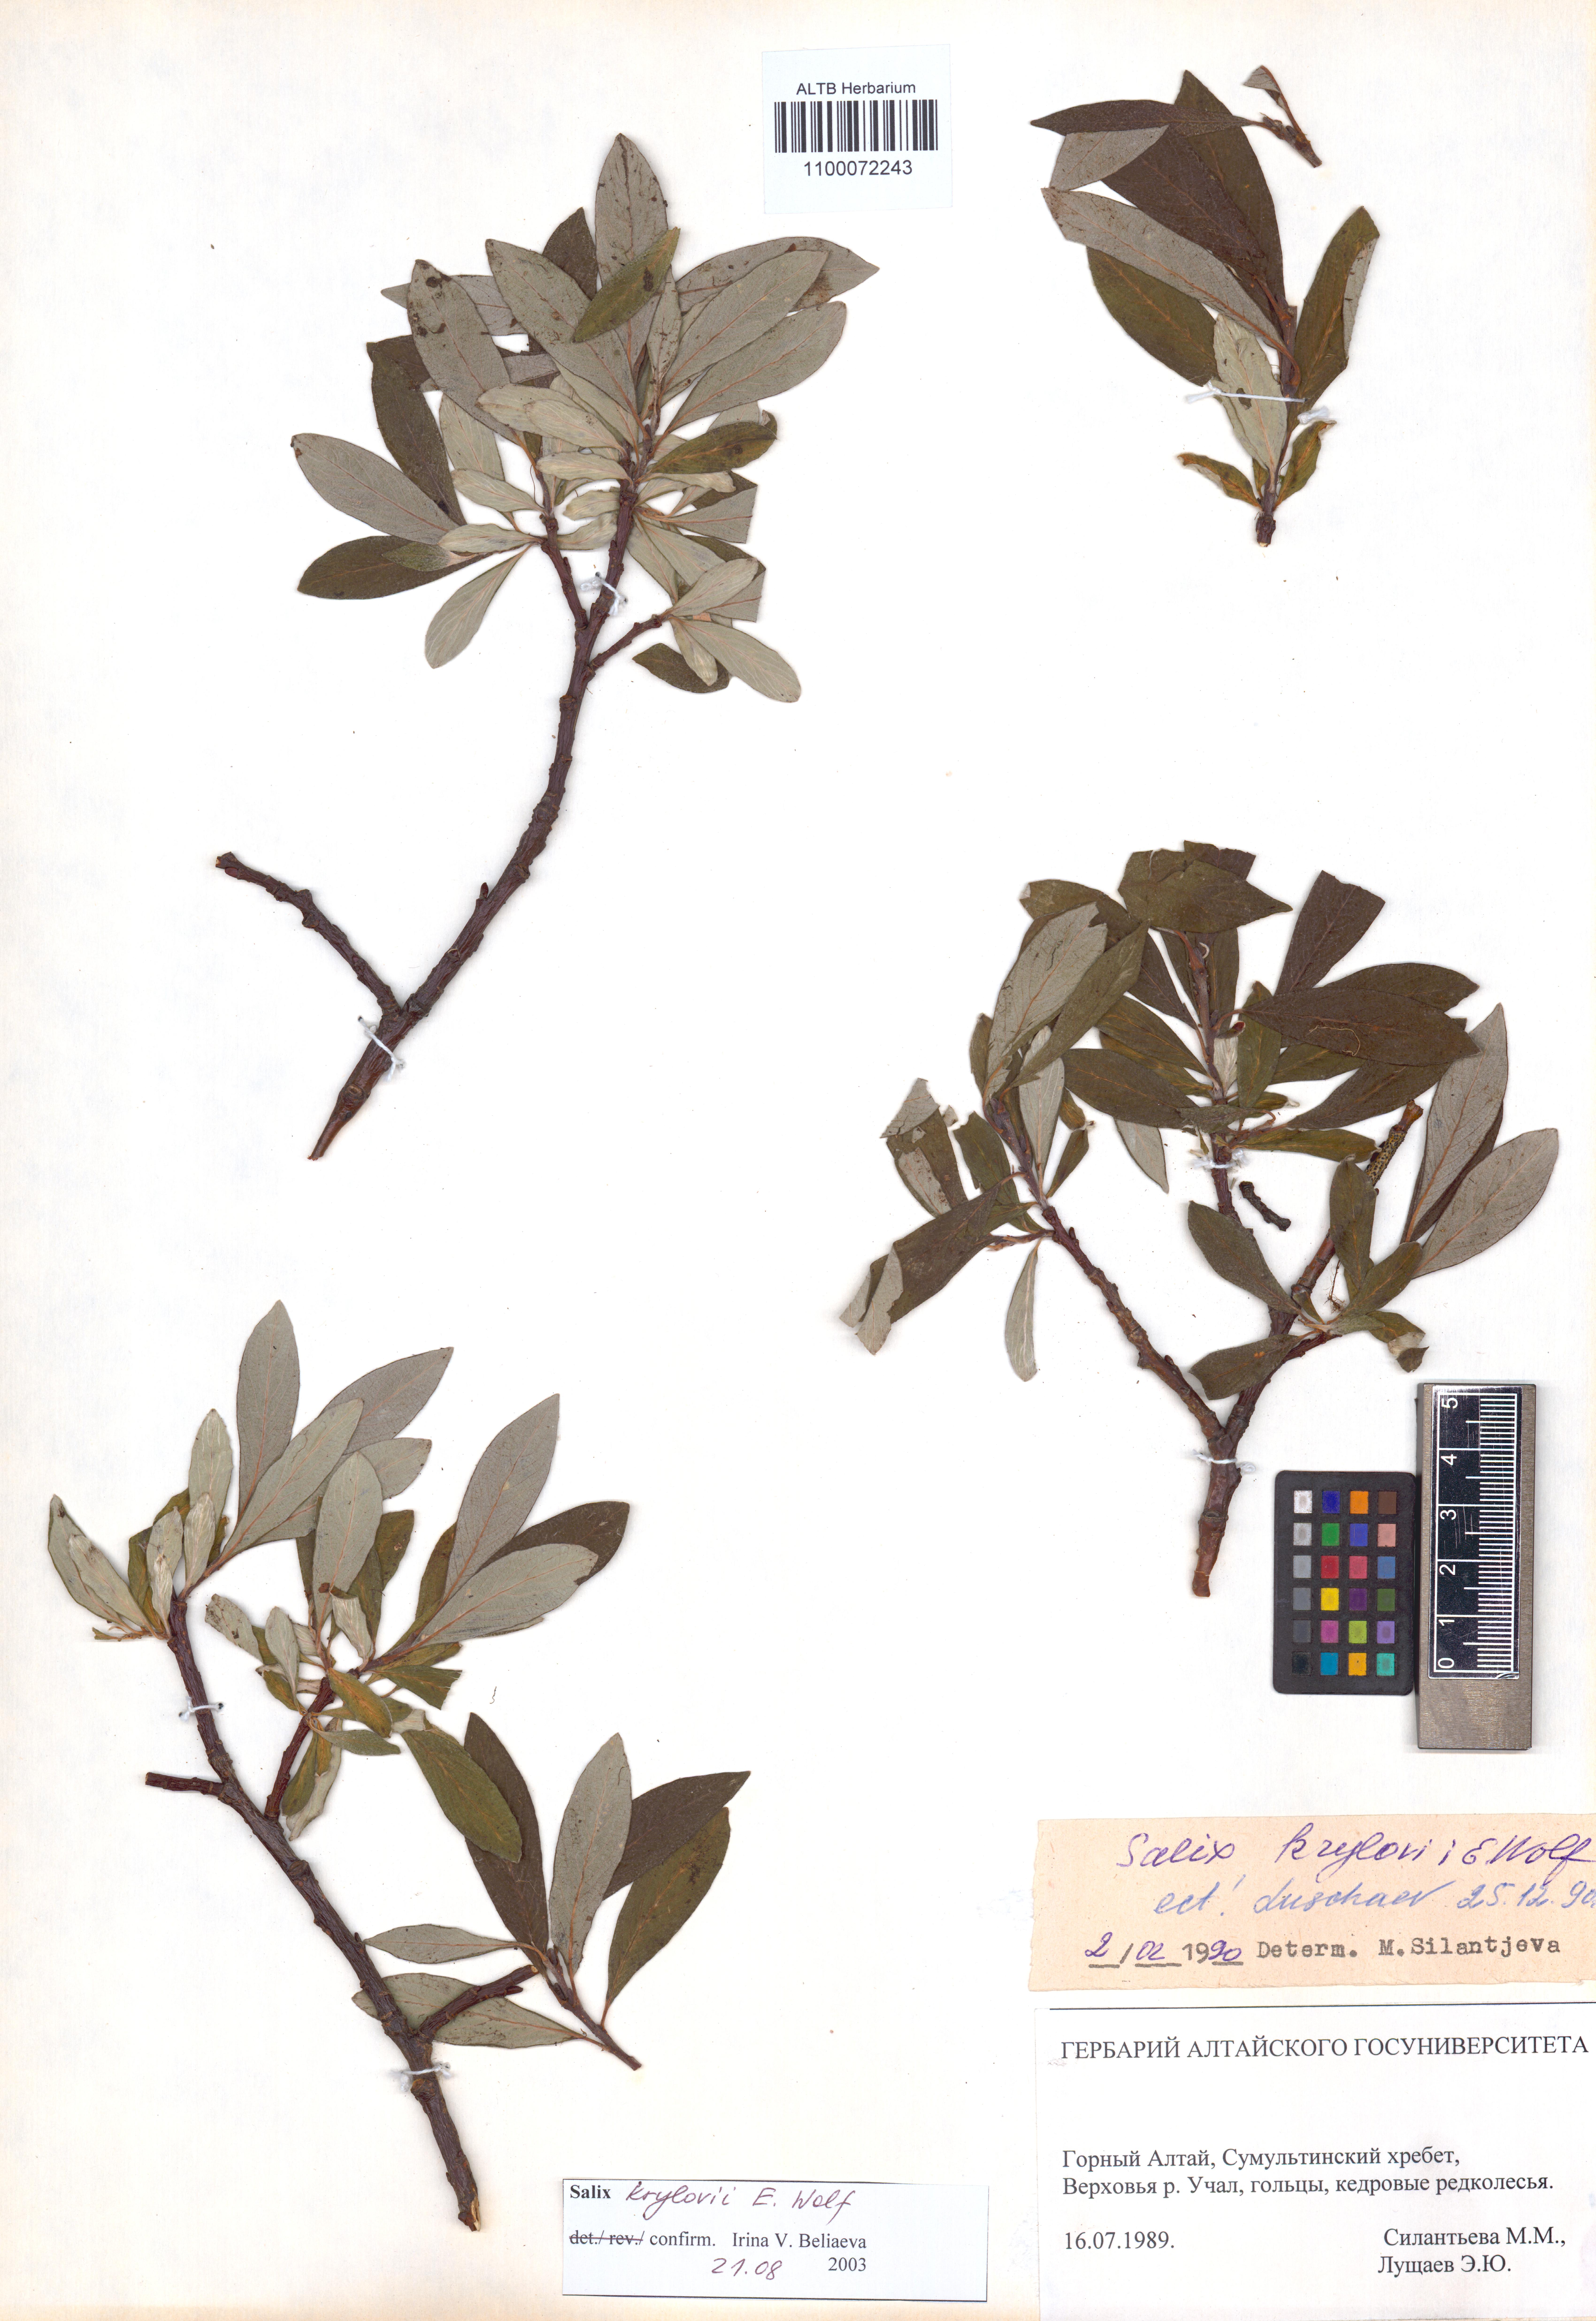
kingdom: Plantae
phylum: Tracheophyta
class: Magnoliopsida
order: Malpighiales
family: Salicaceae
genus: Salix
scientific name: Salix krylovii
